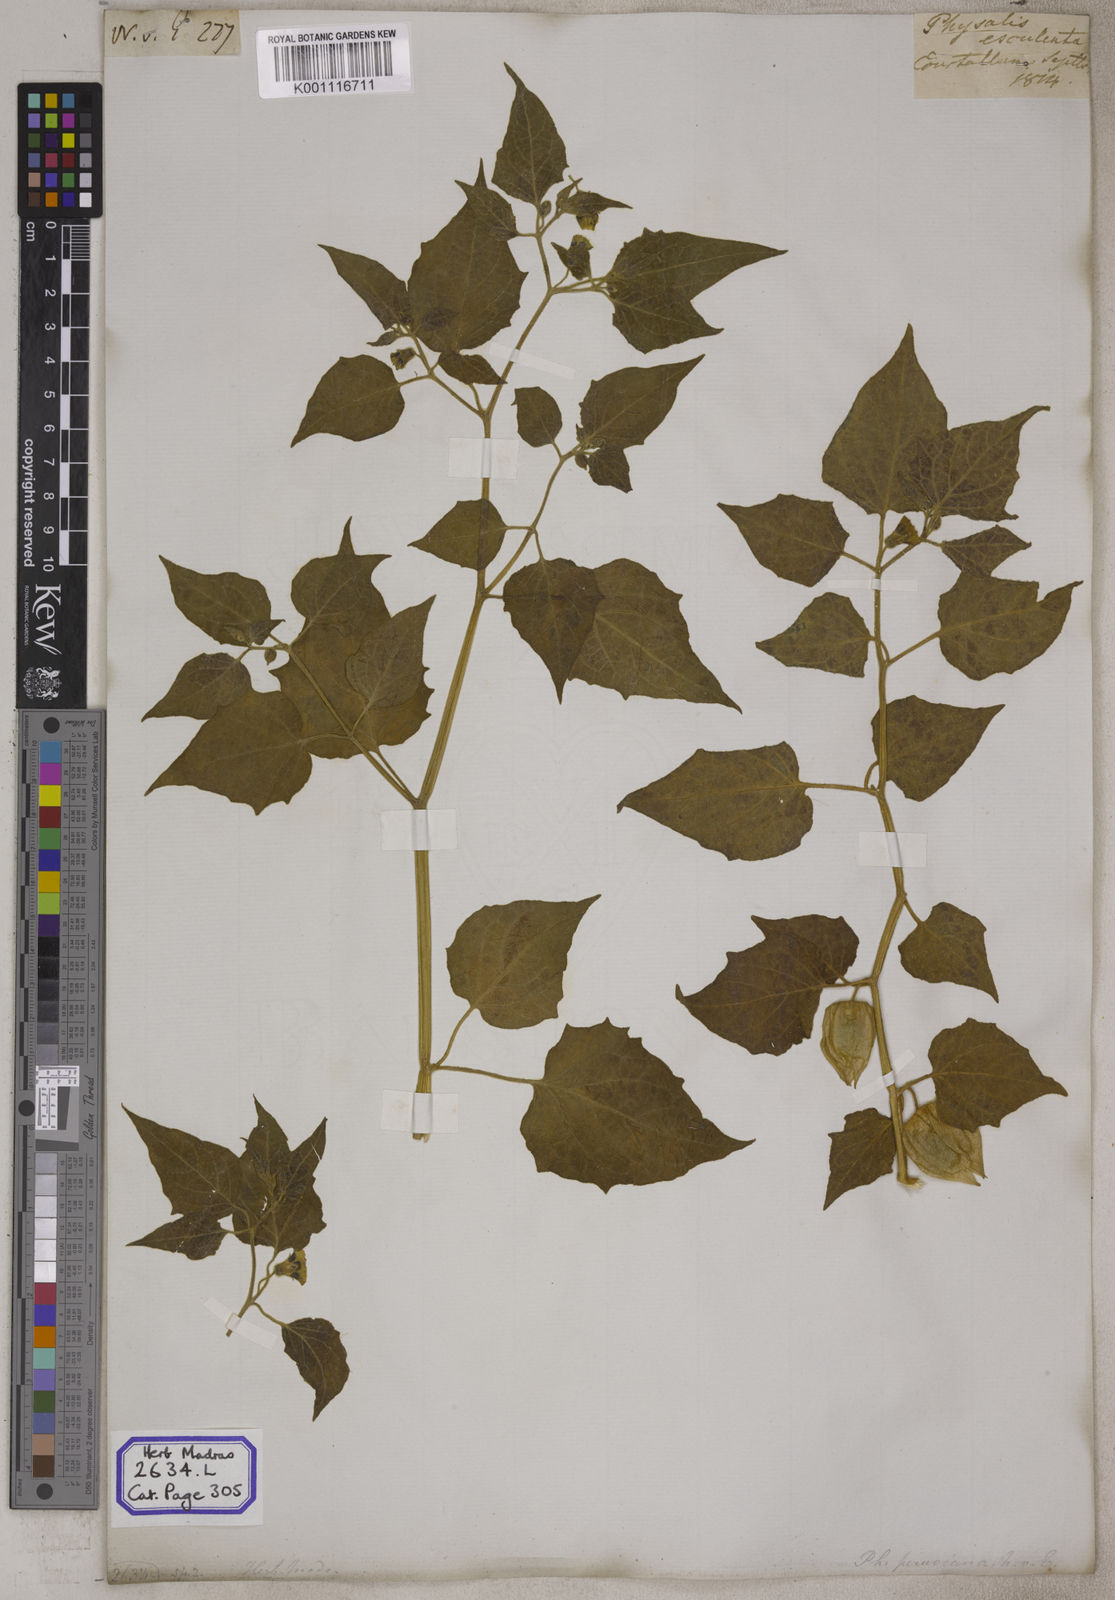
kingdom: Plantae
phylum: Tracheophyta
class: Magnoliopsida
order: Solanales
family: Solanaceae
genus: Physalis
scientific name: Physalis peruviana
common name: Cape-gooseberry
